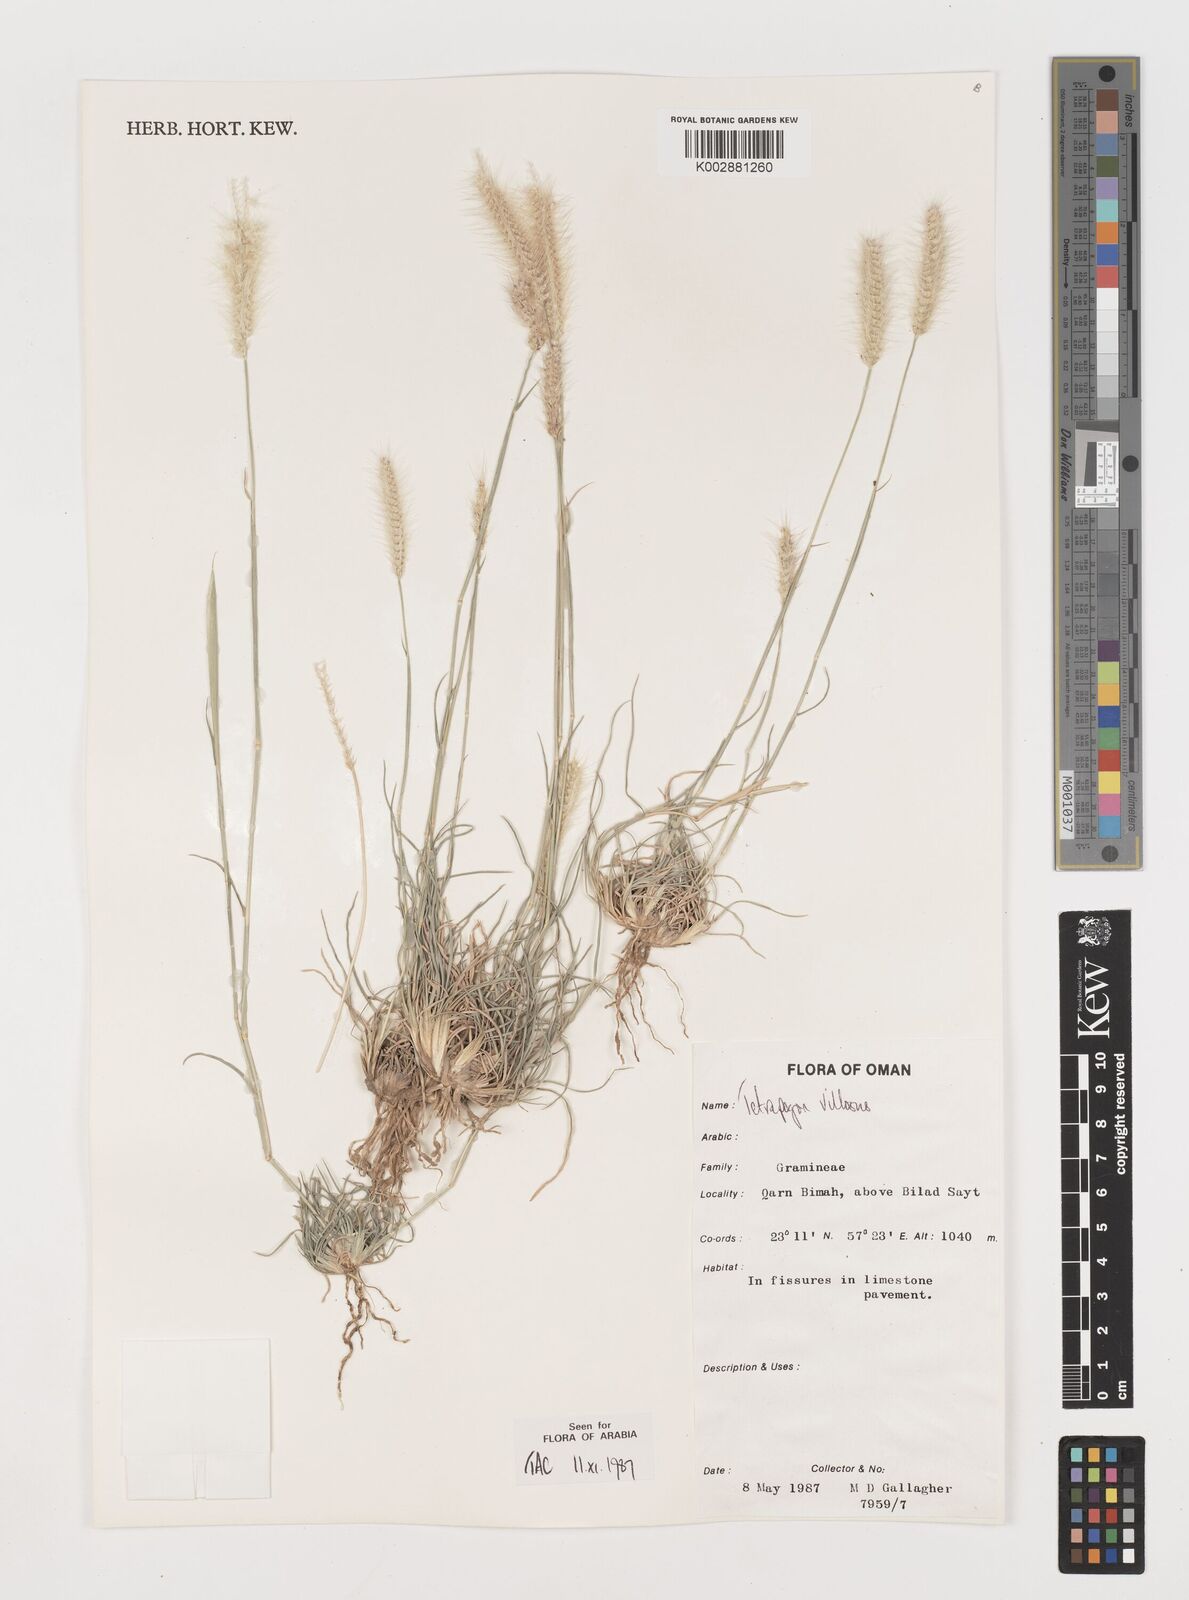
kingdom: Plantae
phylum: Tracheophyta
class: Liliopsida
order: Poales
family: Poaceae
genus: Tetrapogon
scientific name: Tetrapogon villosus
